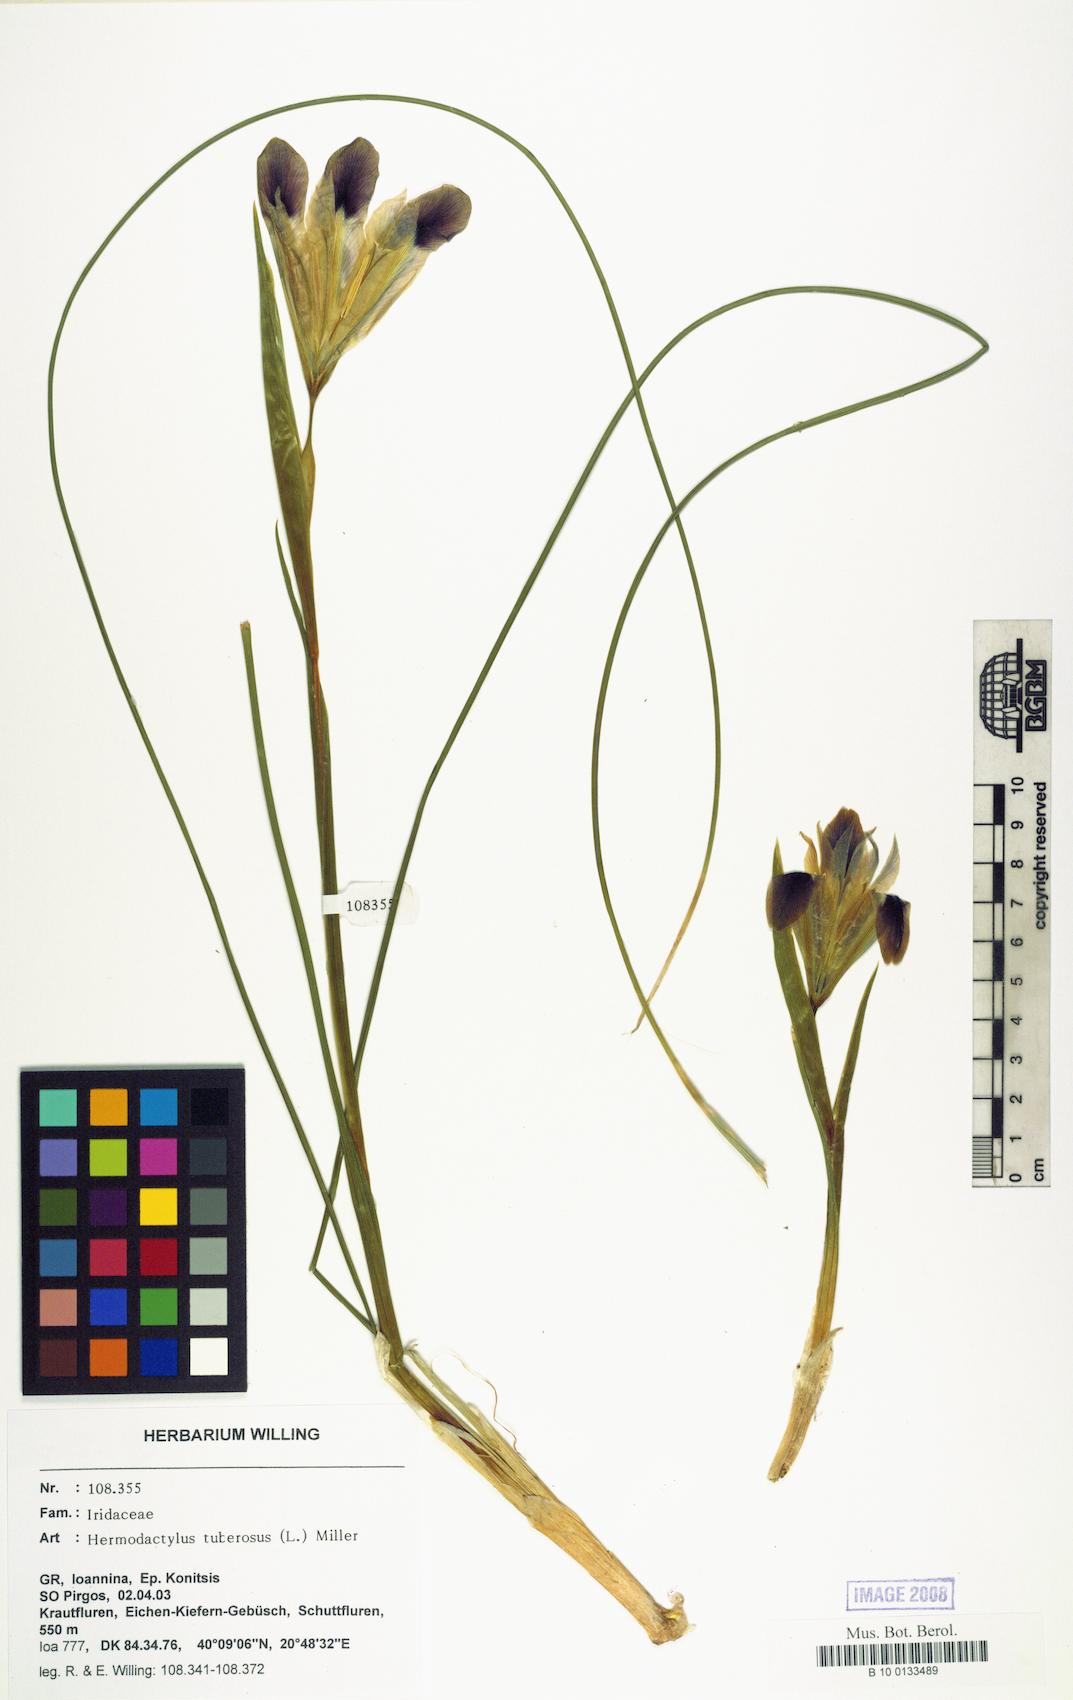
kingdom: Plantae
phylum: Tracheophyta
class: Liliopsida
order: Asparagales
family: Iridaceae
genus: Iris
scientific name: Iris tuberosa
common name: Snake's-head iris
